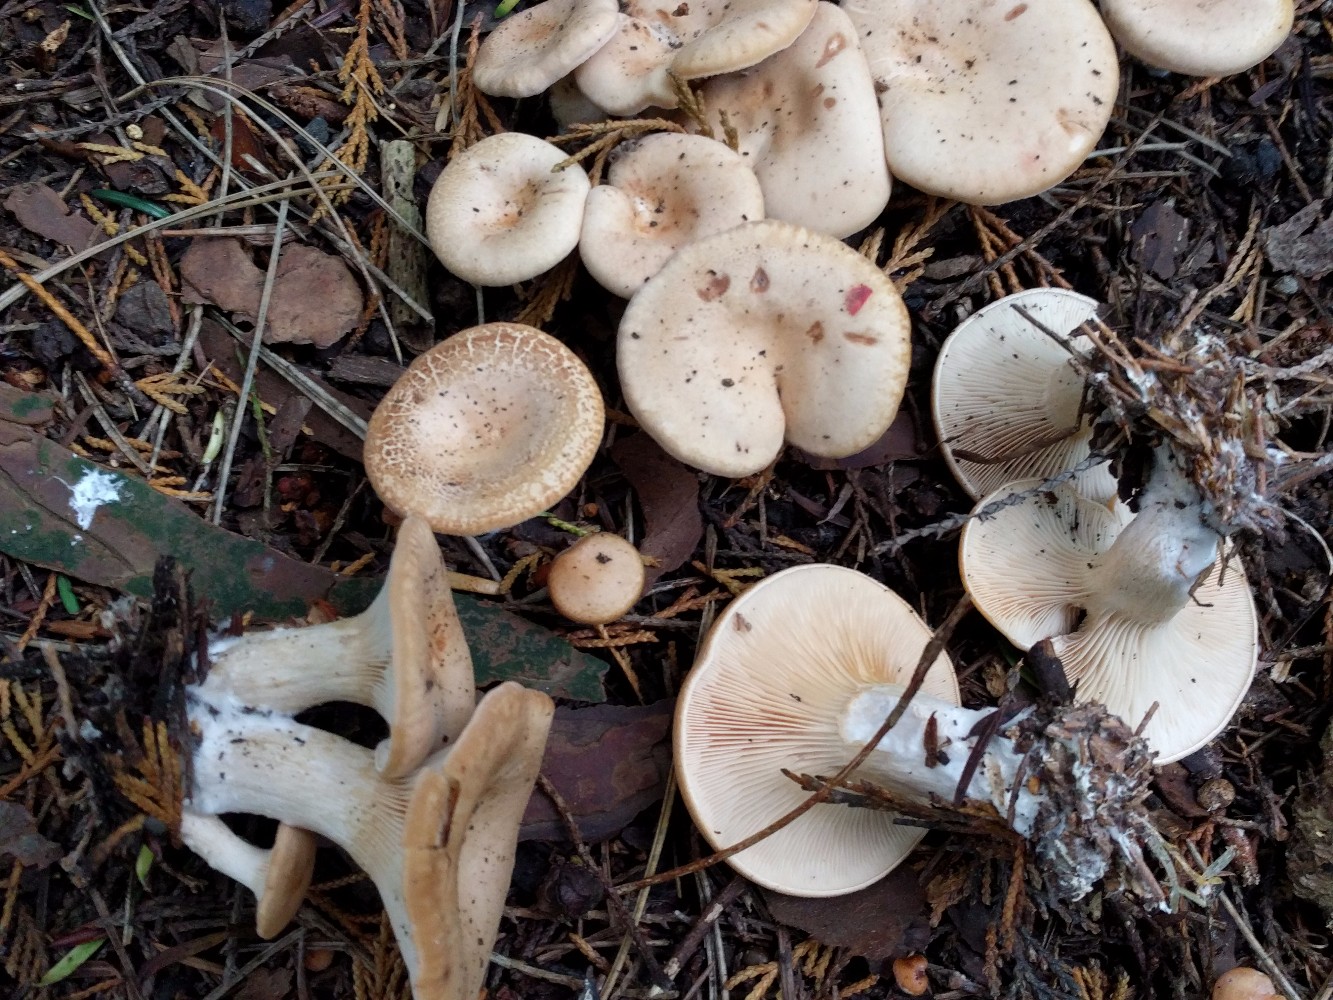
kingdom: Fungi
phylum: Basidiomycota
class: Agaricomycetes
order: Agaricales
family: Tricholomataceae
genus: Paralepista
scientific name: Paralepista gilva
